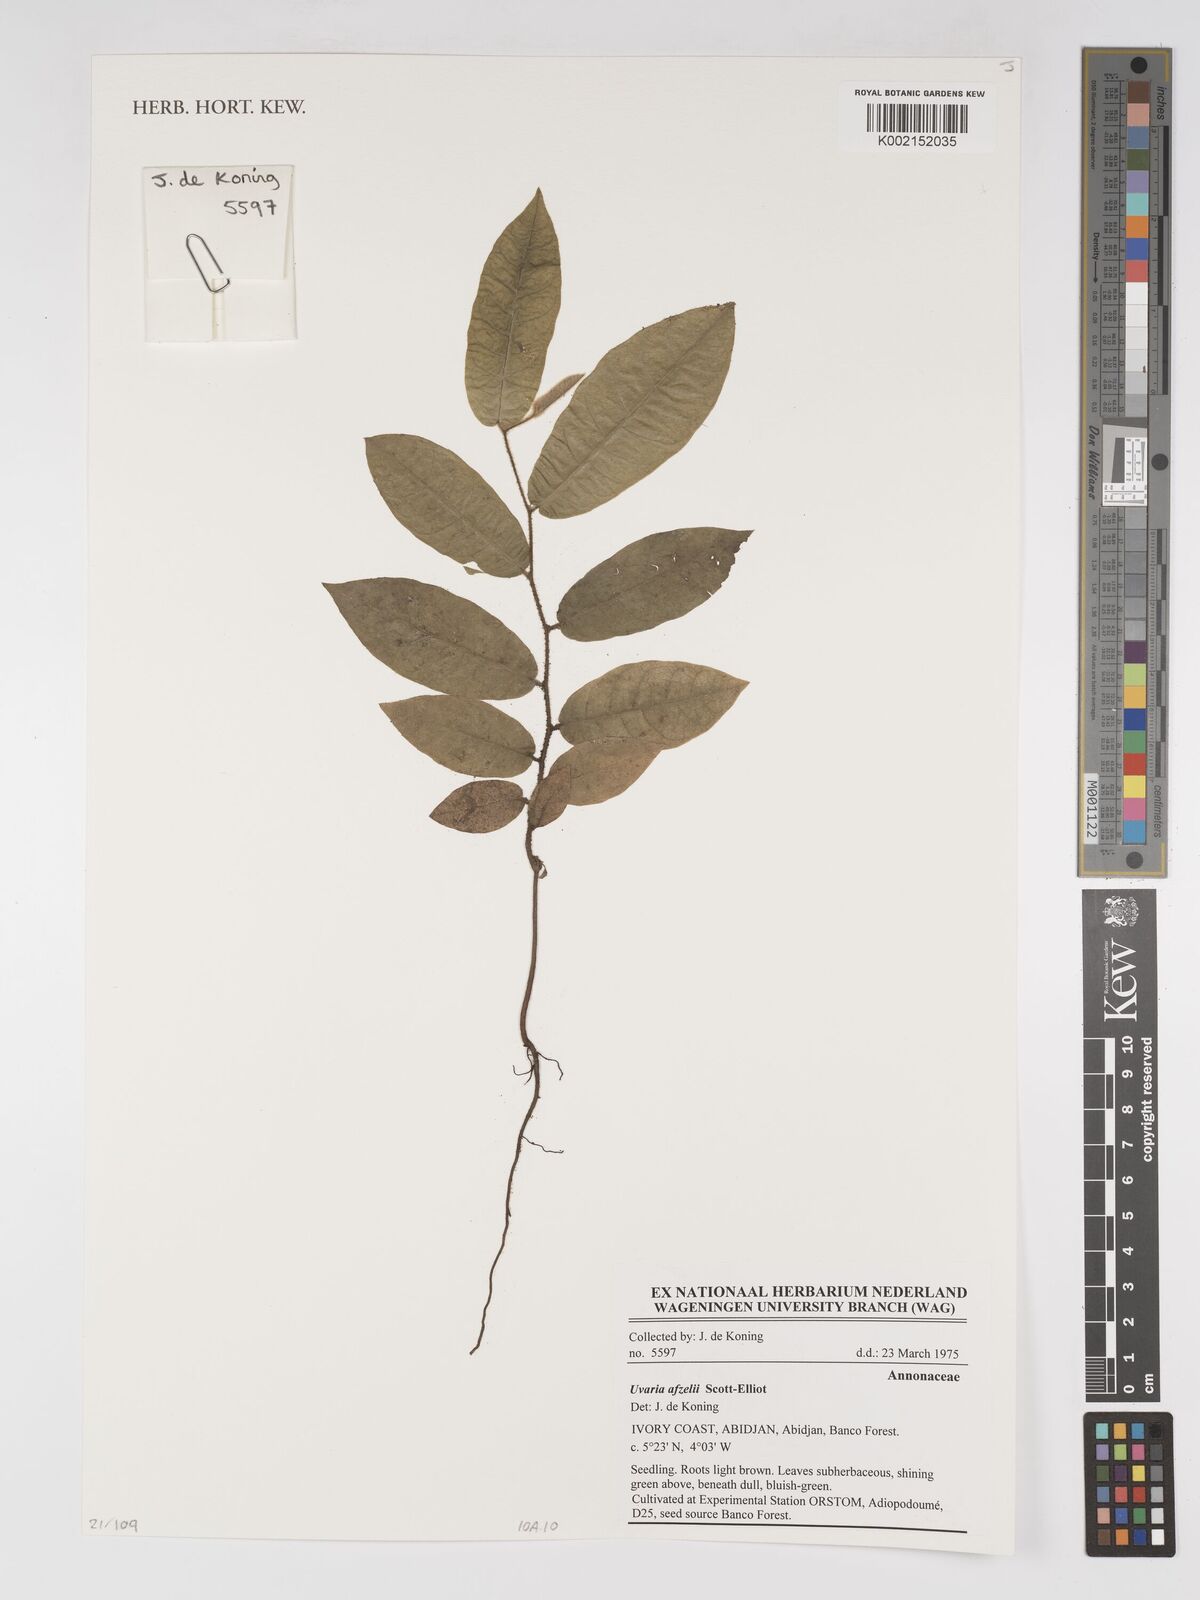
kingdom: Plantae
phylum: Tracheophyta
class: Magnoliopsida
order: Magnoliales
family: Annonaceae
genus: Uvaria
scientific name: Uvaria afzelii
